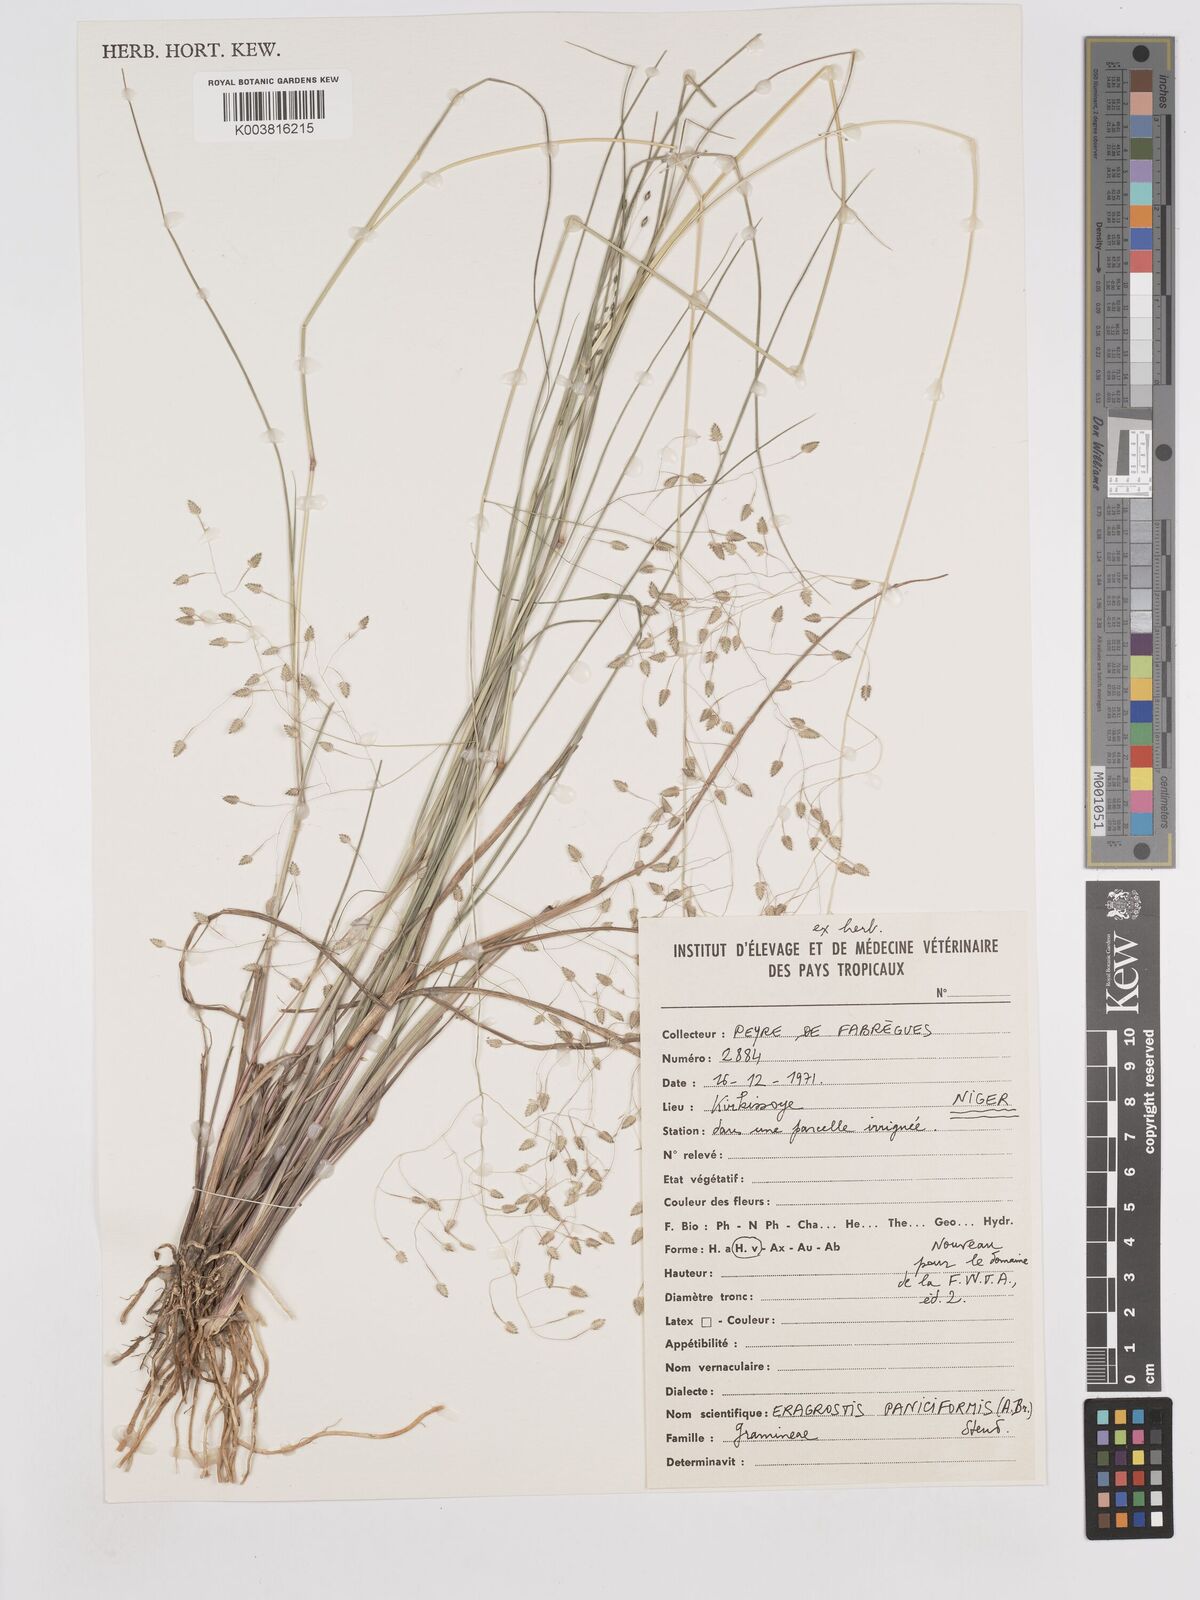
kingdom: Plantae
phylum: Tracheophyta
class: Liliopsida
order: Poales
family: Poaceae
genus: Eragrostis
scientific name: Eragrostis paniciformis
